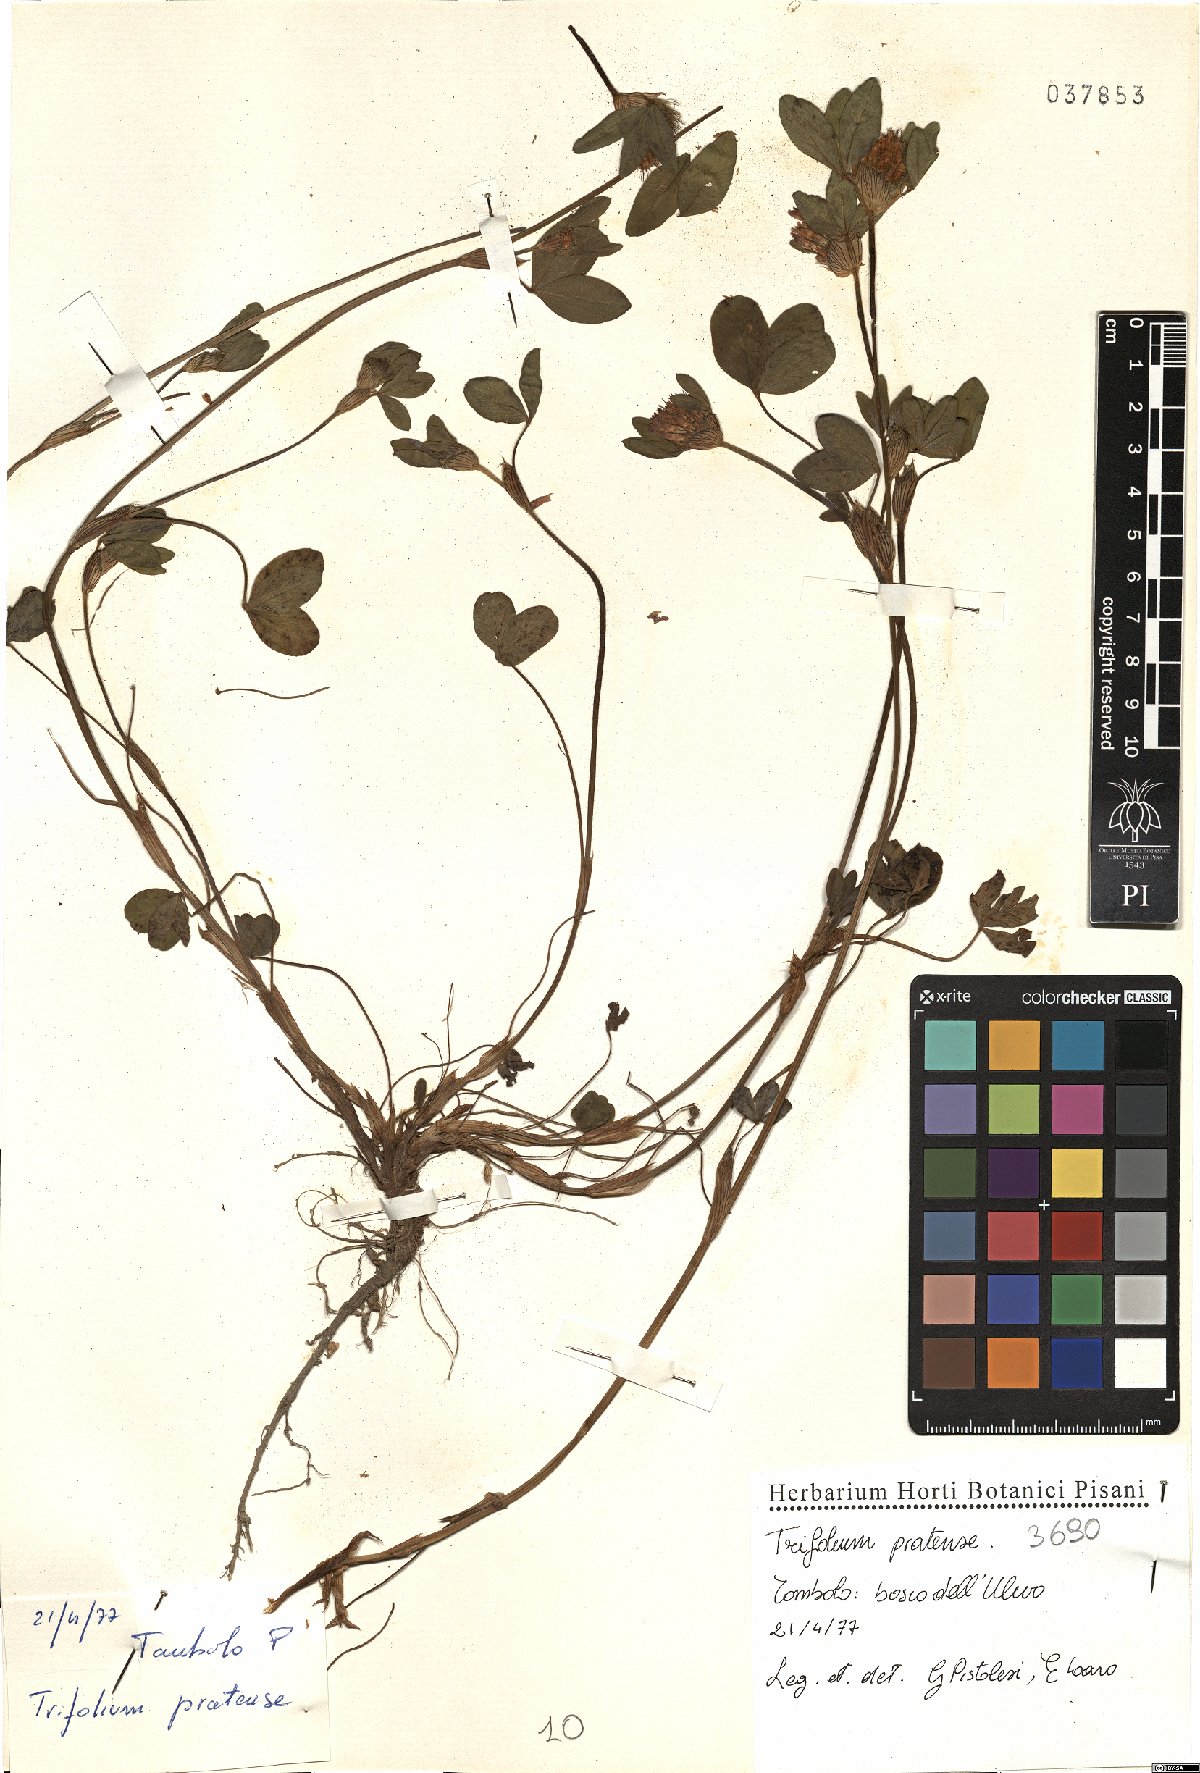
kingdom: Plantae
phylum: Tracheophyta
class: Magnoliopsida
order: Fabales
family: Fabaceae
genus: Trifolium
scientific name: Trifolium pratense
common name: Red clover
